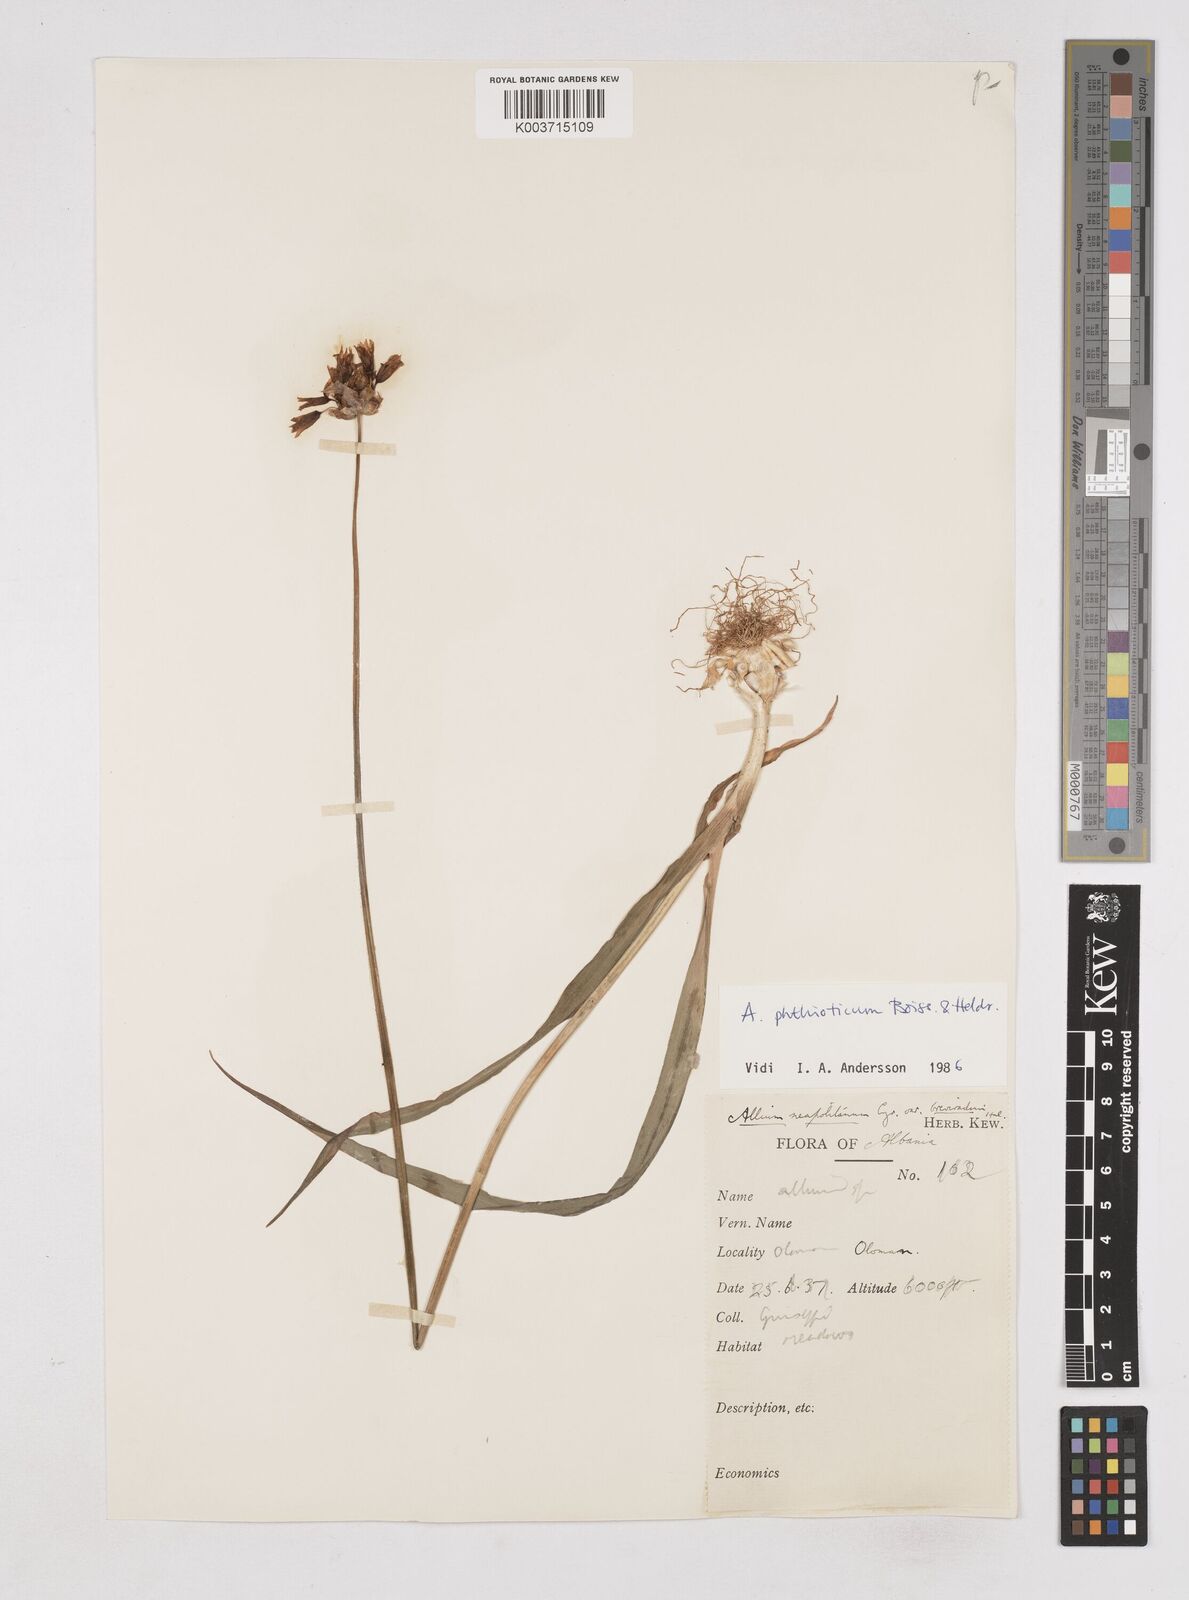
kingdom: Plantae
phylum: Tracheophyta
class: Liliopsida
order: Asparagales
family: Amaryllidaceae
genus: Allium
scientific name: Allium phthioticum
